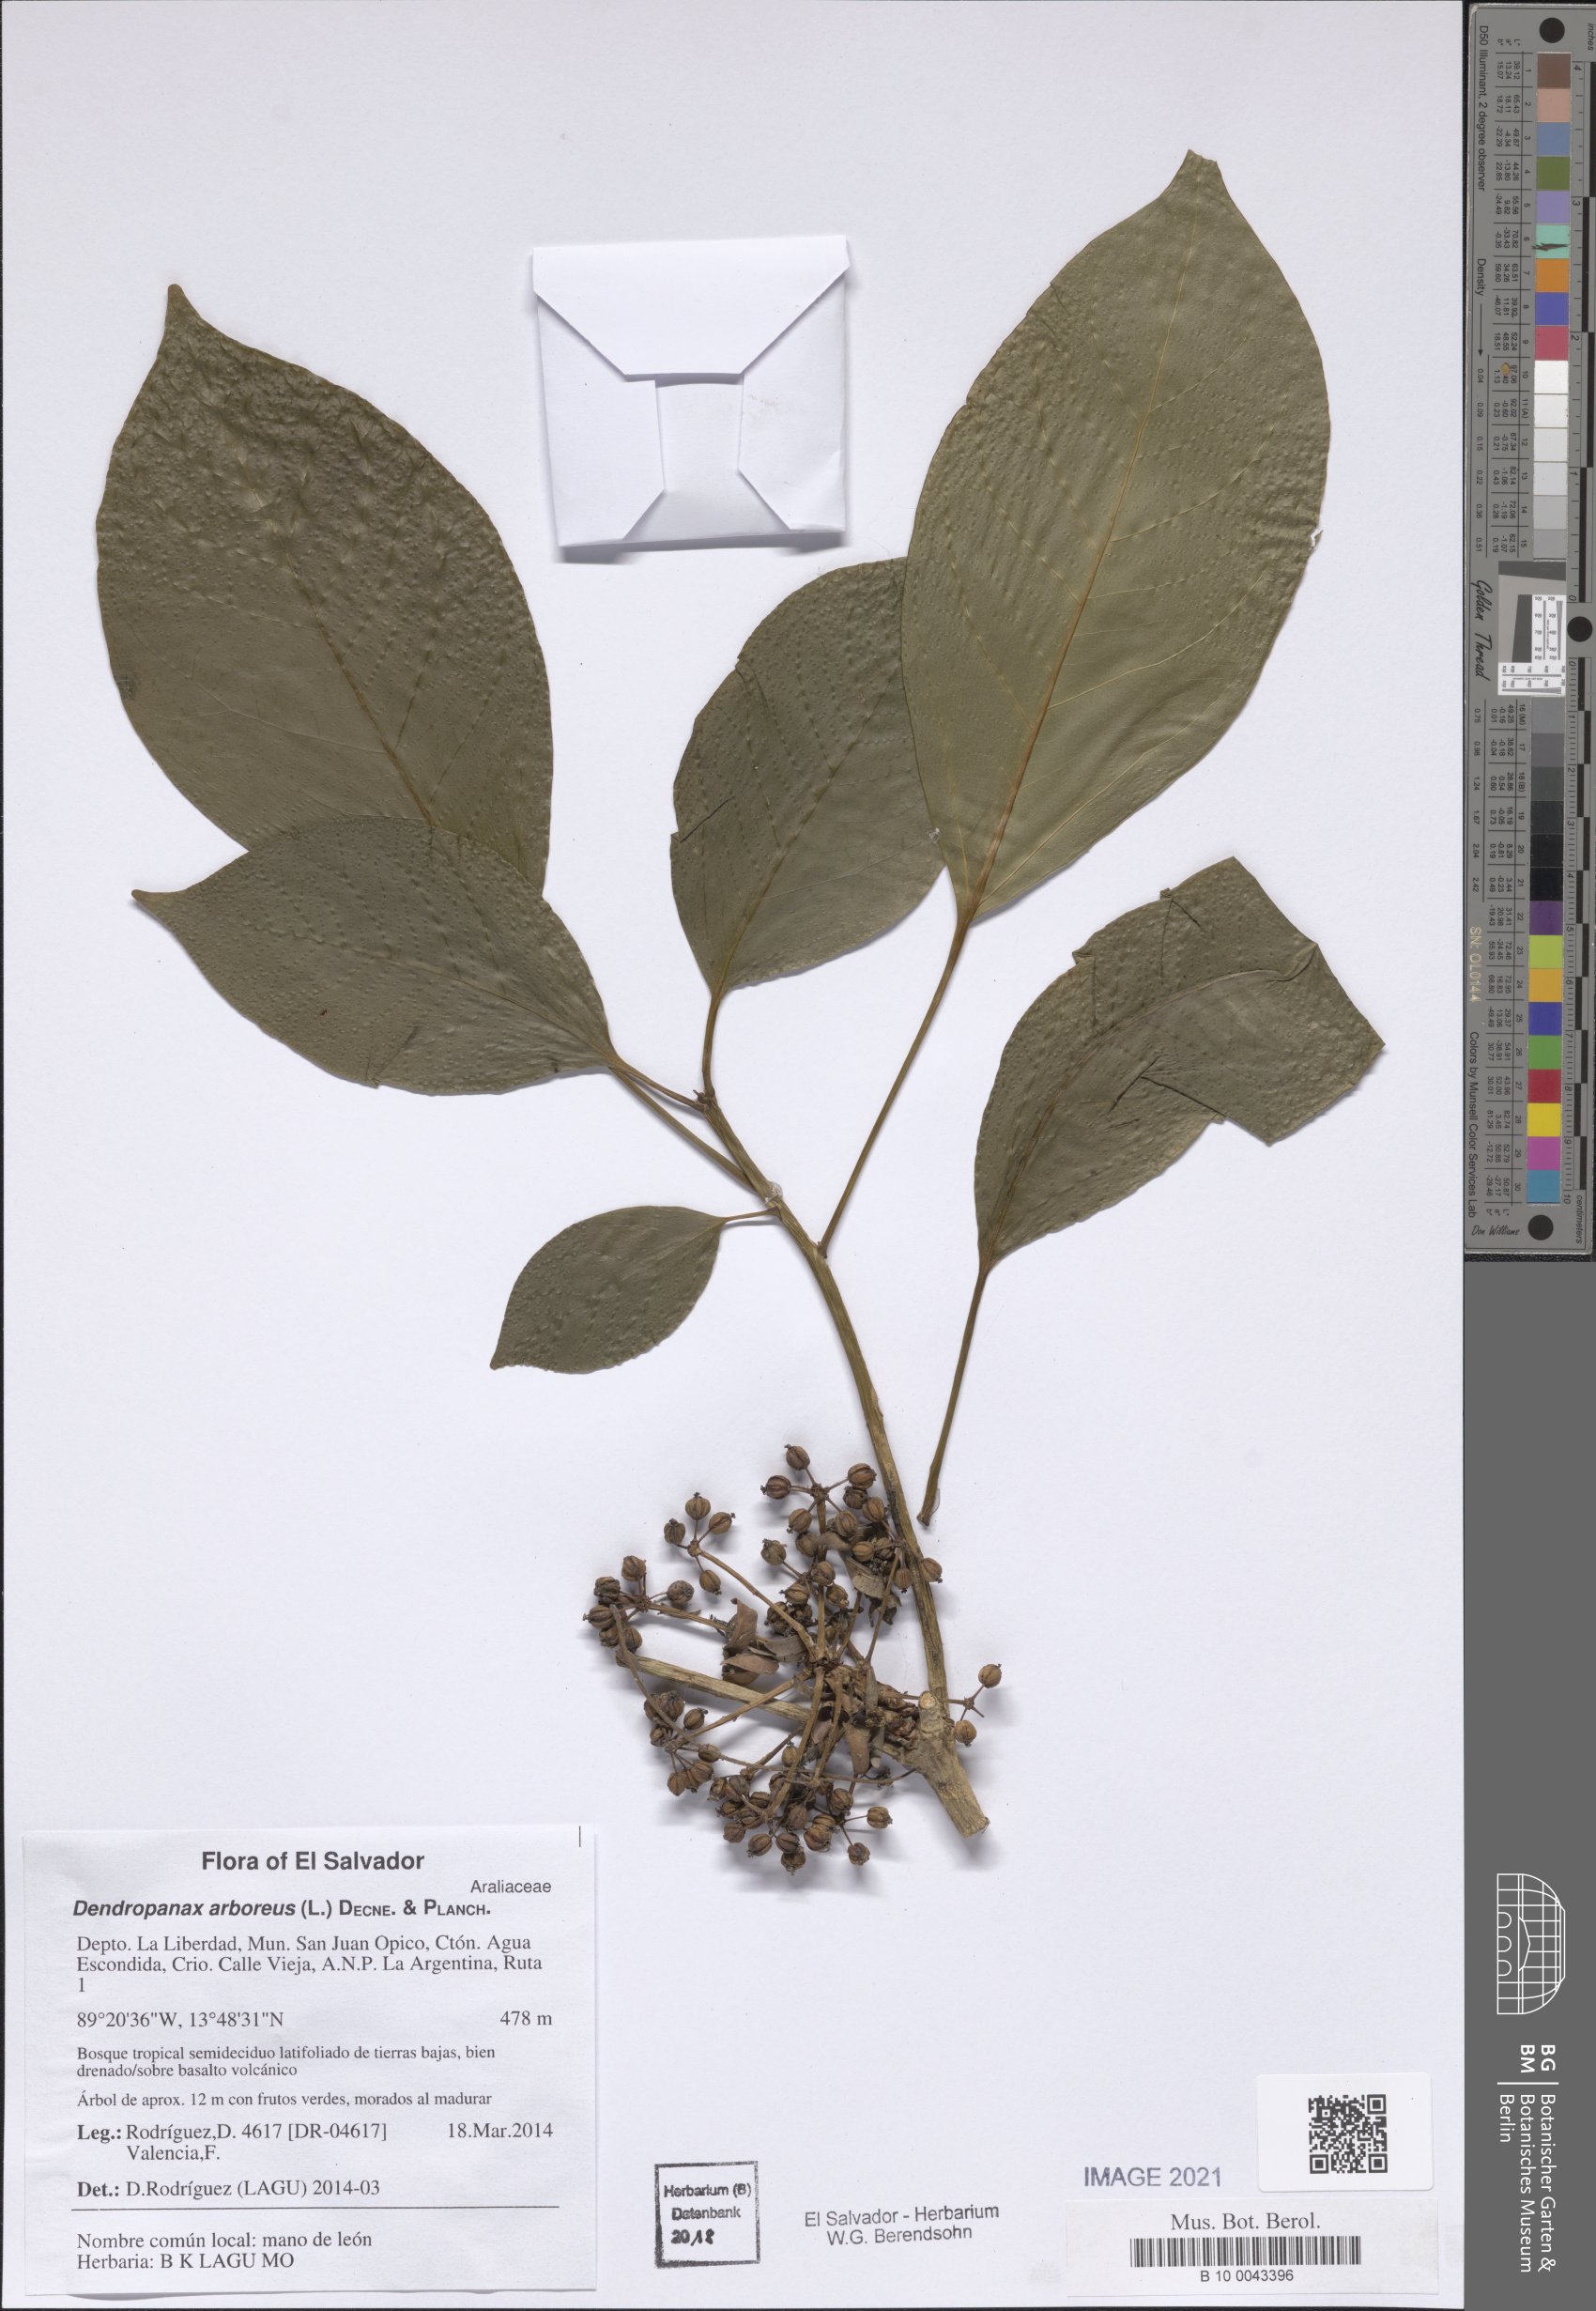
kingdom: Plantae
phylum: Tracheophyta
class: Magnoliopsida
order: Apiales
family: Araliaceae
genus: Dendropanax
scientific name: Dendropanax arboreus
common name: Potato-wood
